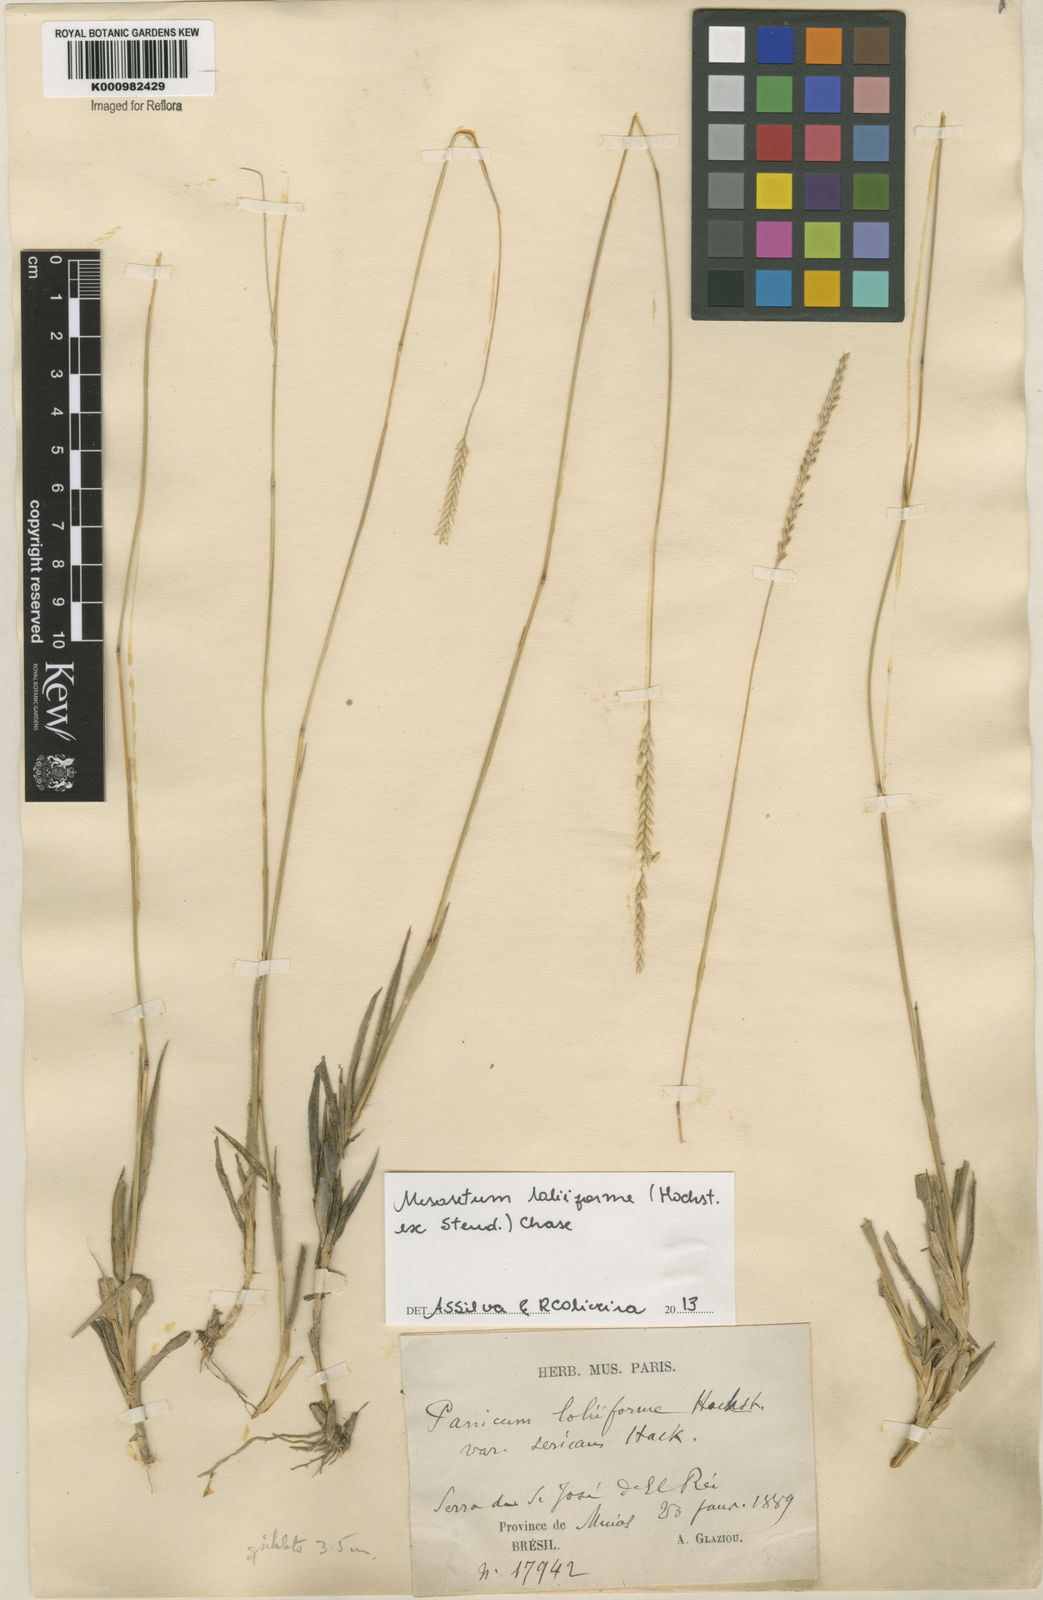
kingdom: Plantae
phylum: Tracheophyta
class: Liliopsida
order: Poales
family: Poaceae
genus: Mesosetum
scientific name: Mesosetum
